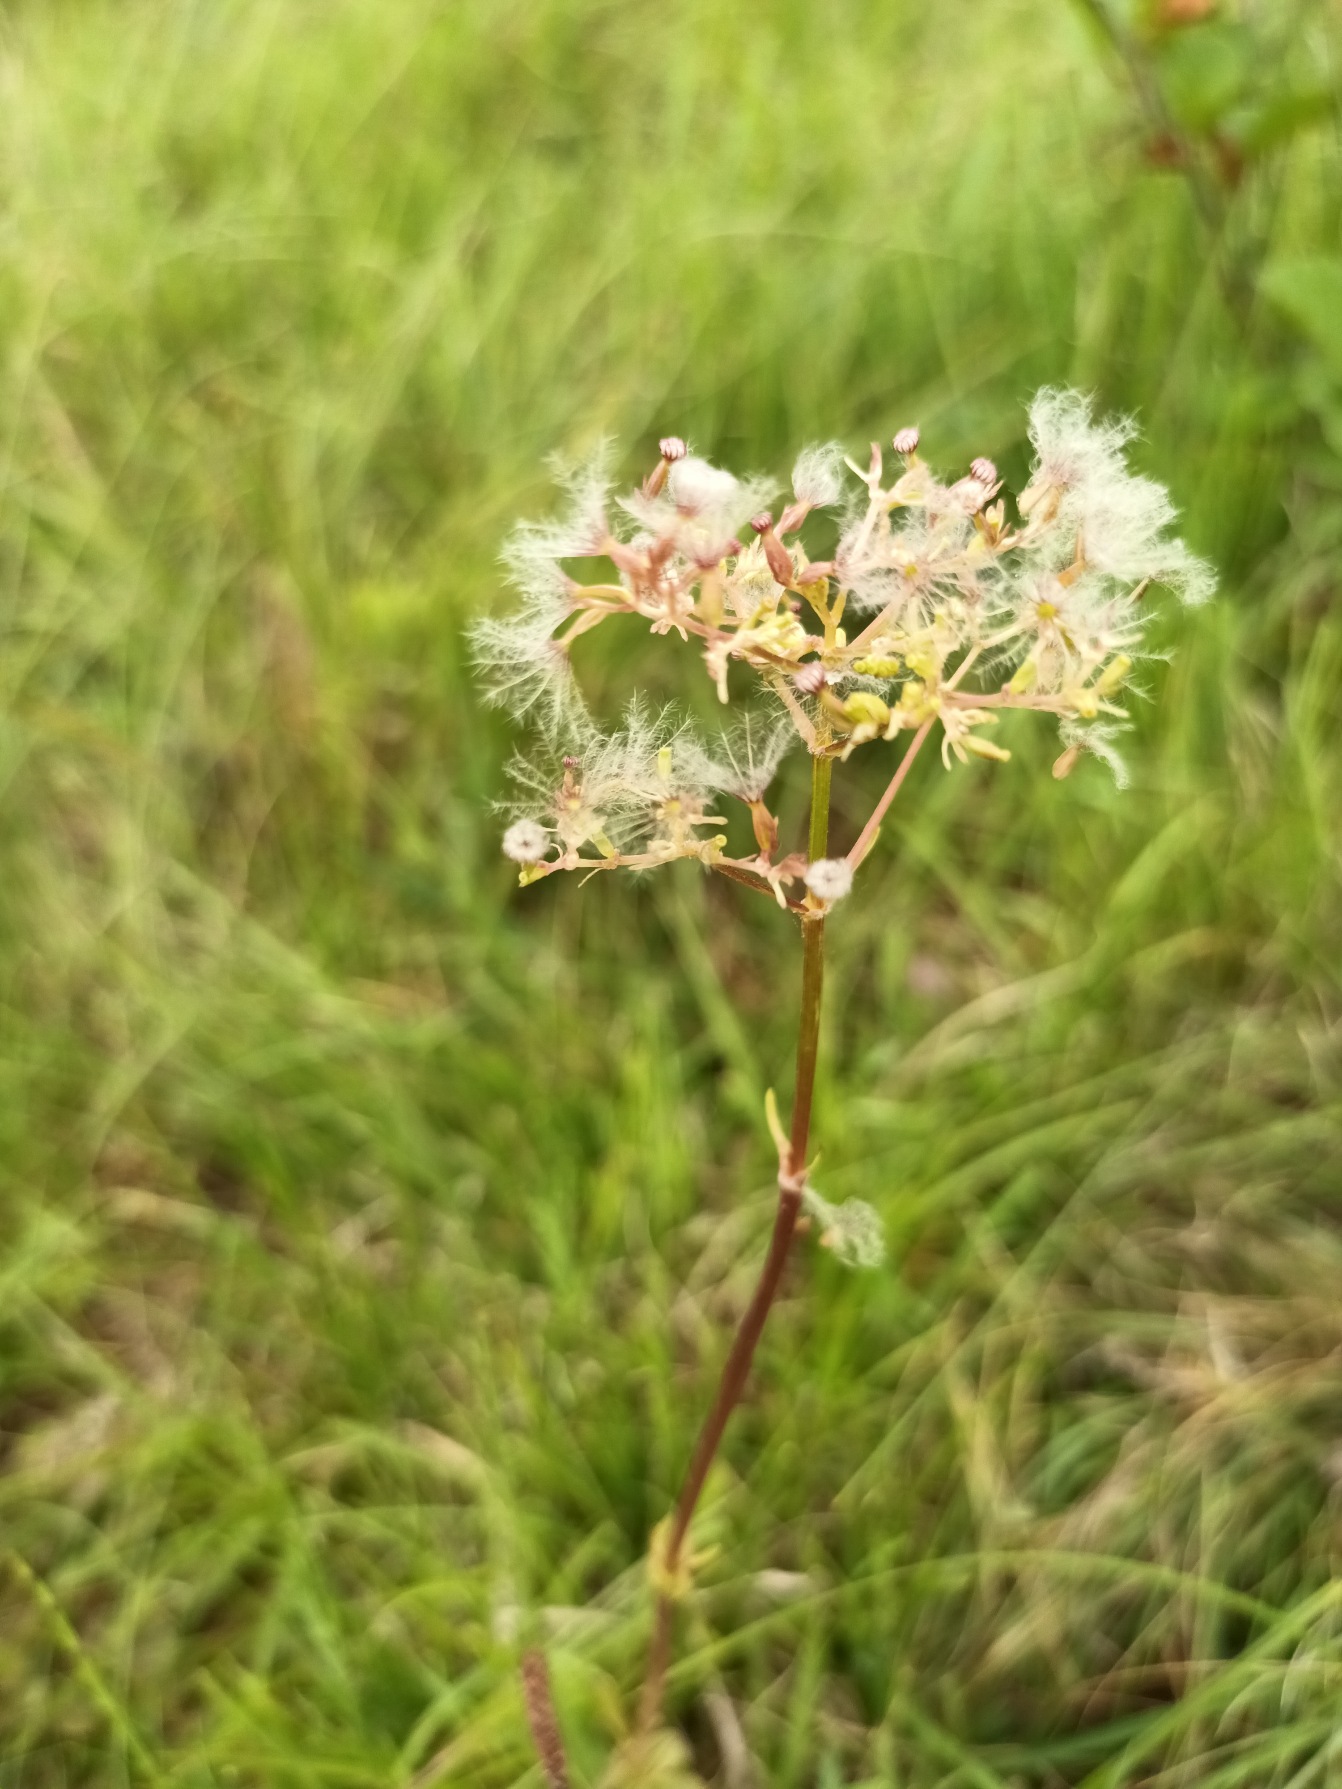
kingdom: Plantae
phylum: Tracheophyta
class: Magnoliopsida
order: Dipsacales
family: Caprifoliaceae
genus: Valeriana
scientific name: Valeriana dioica
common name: Tvebo baldrian
